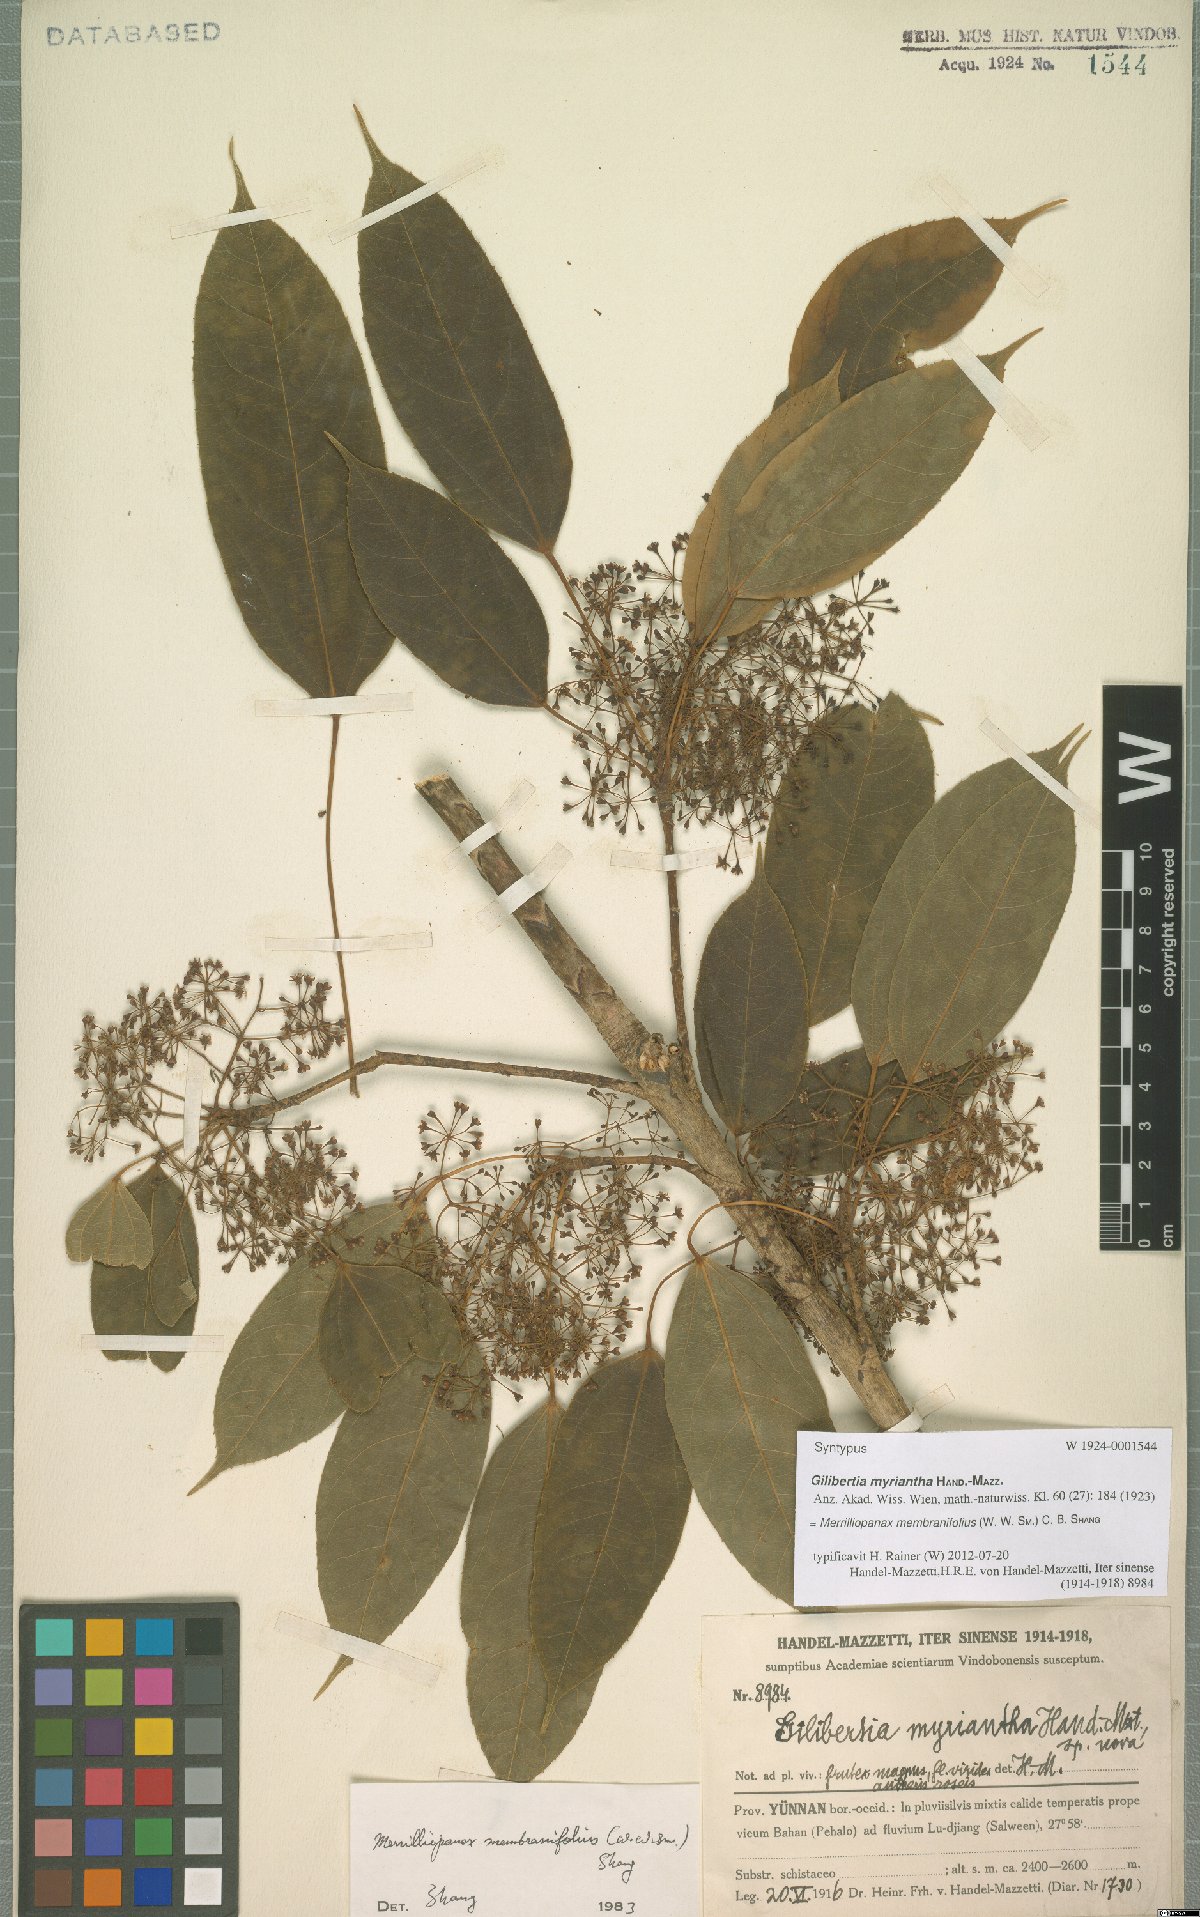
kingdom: Plantae
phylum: Tracheophyta
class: Magnoliopsida
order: Apiales
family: Araliaceae
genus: Merrilliopanax
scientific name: Merrilliopanax membranifolius
